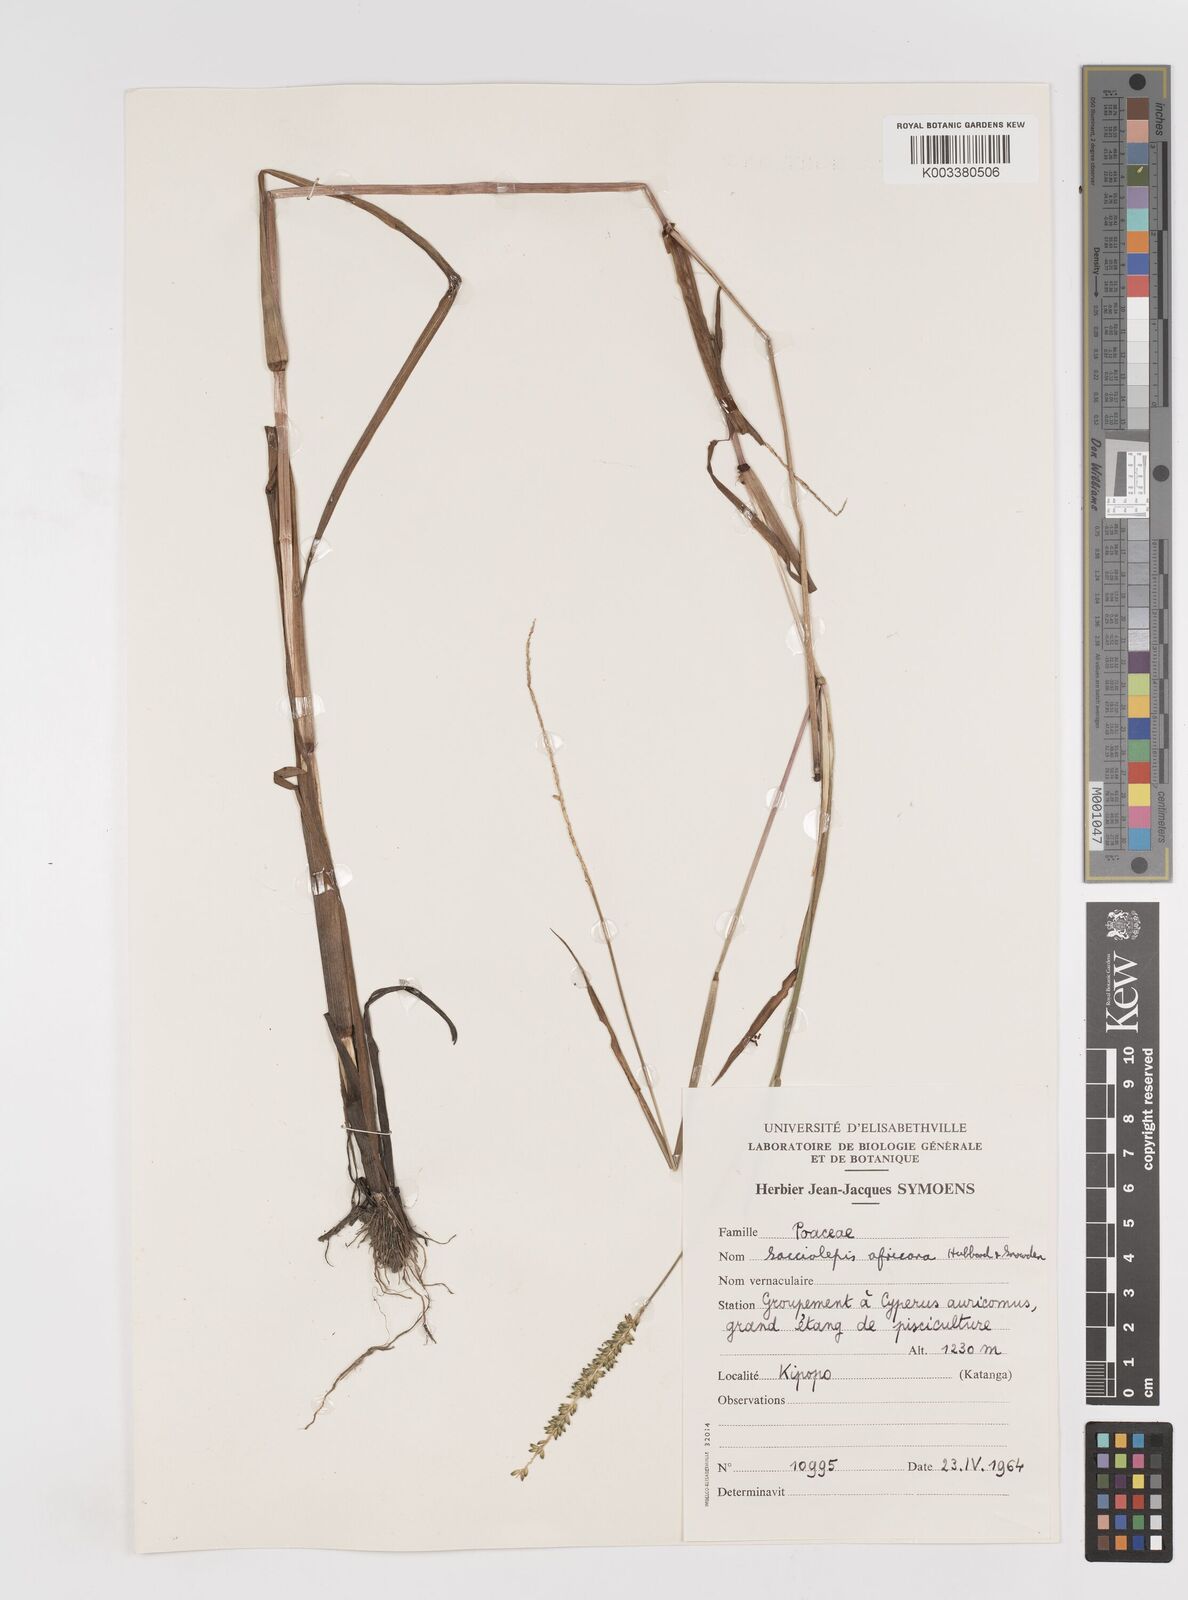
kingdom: Plantae
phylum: Tracheophyta
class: Liliopsida
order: Poales
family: Poaceae
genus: Sacciolepis
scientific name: Sacciolepis africana
